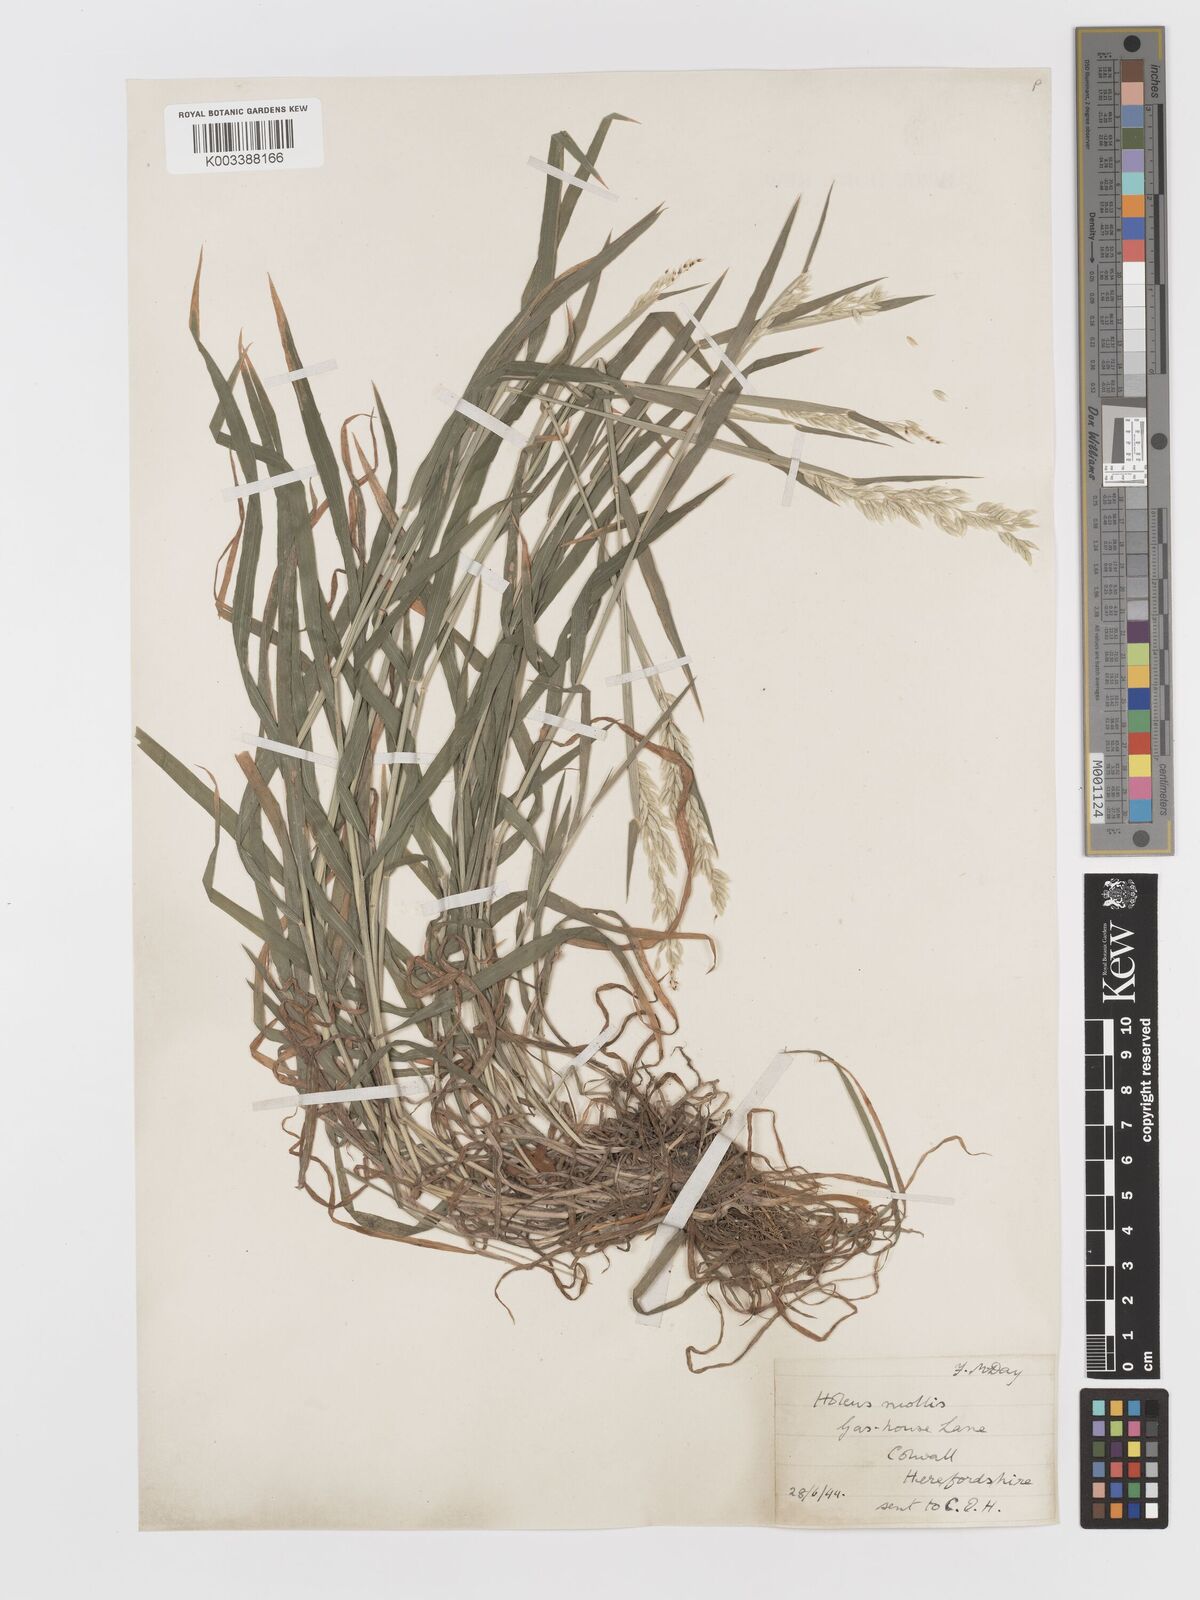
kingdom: Plantae
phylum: Tracheophyta
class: Liliopsida
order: Poales
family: Poaceae
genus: Holcus
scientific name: Holcus mollis
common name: Creeping velvetgrass
